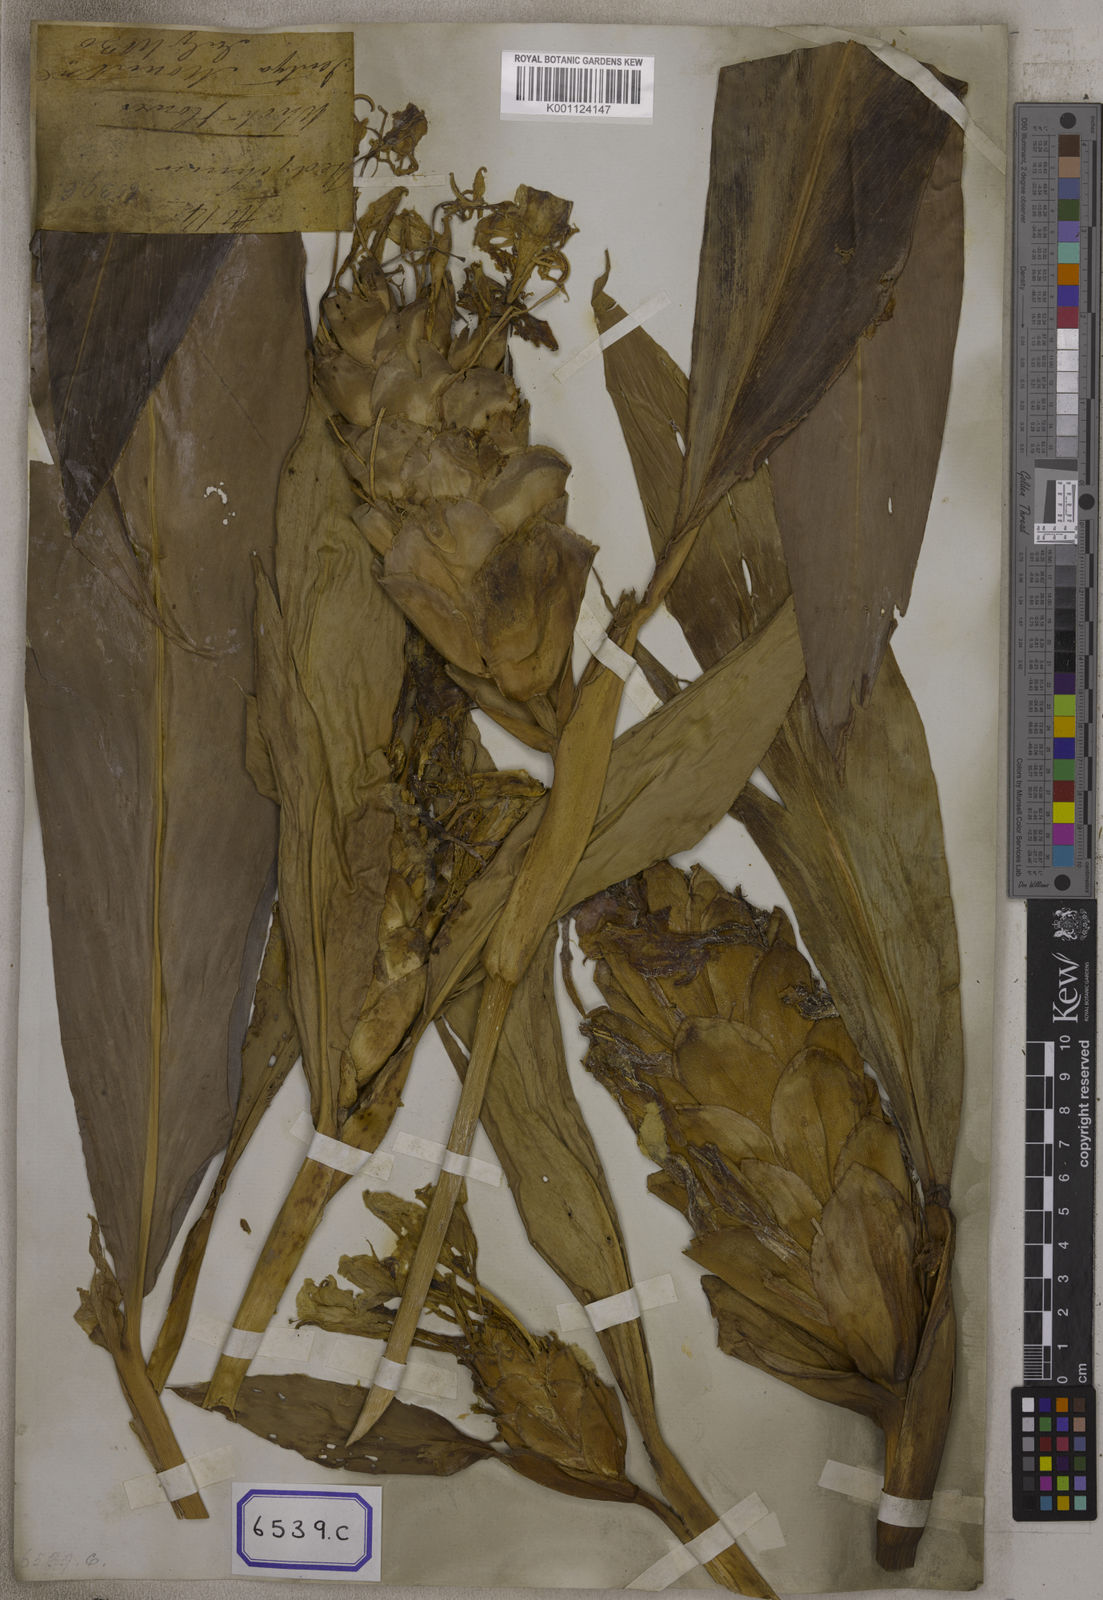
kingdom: Plantae
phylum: Tracheophyta
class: Liliopsida
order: Zingiberales
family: Zingiberaceae
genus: Hedychium
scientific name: Hedychium coronarium
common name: White garland-lily
